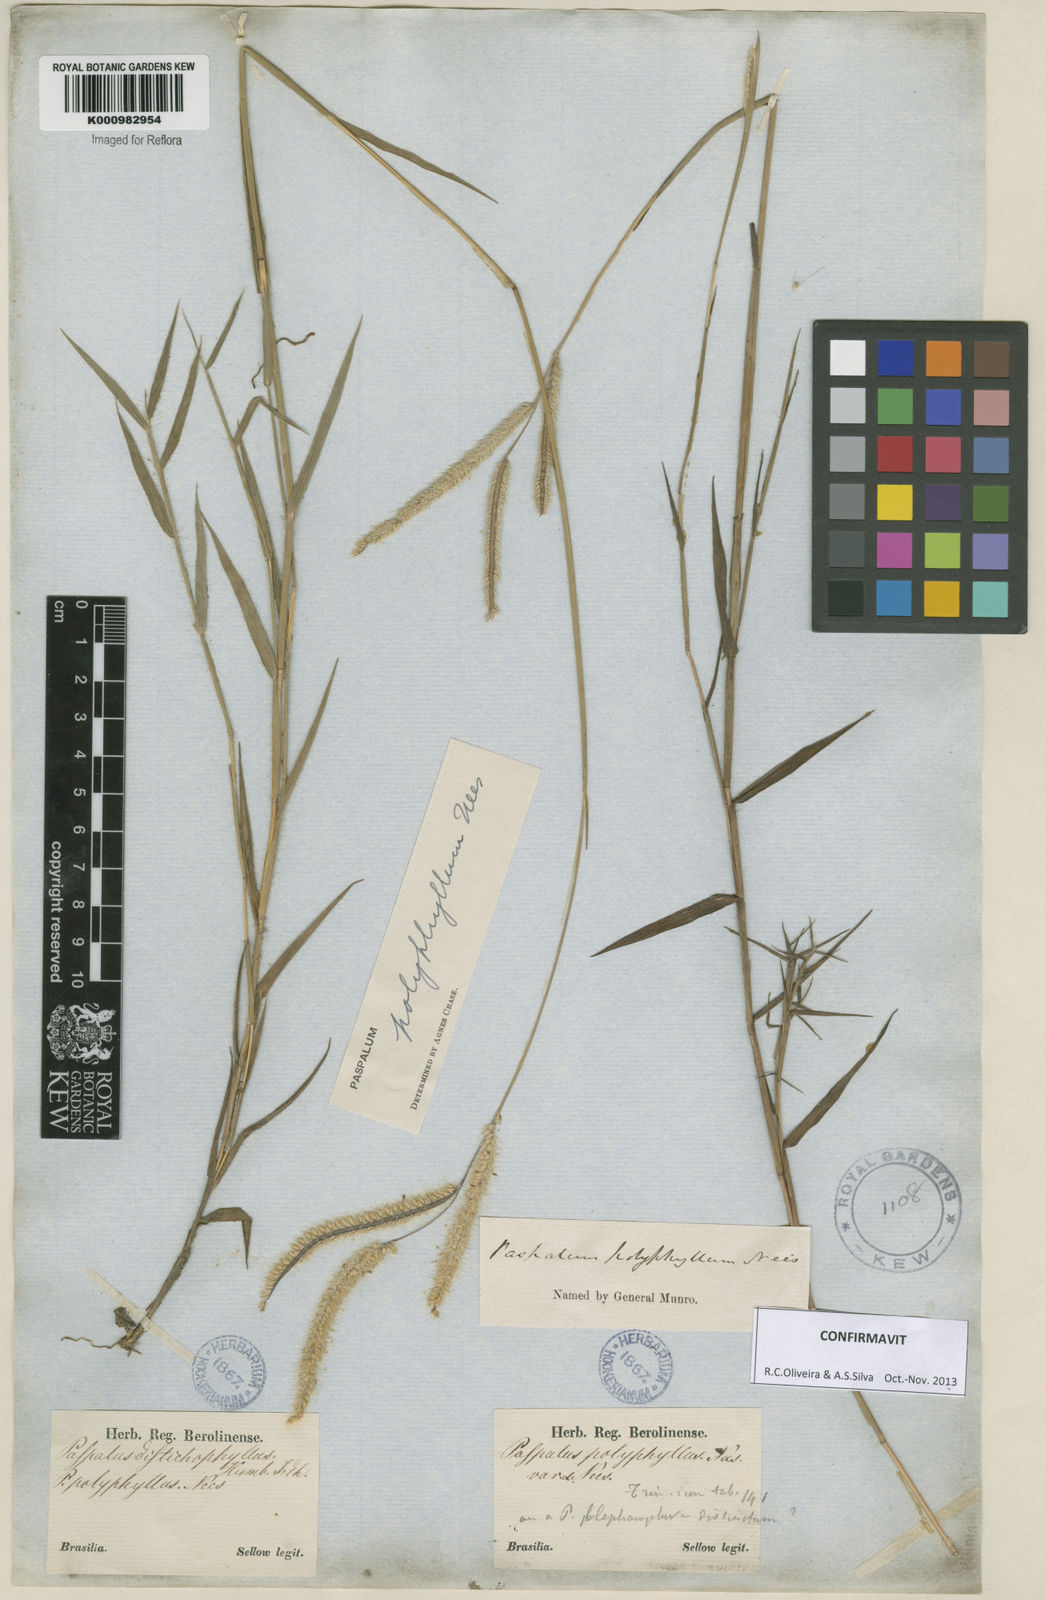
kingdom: Plantae
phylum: Tracheophyta
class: Liliopsida
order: Poales
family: Poaceae
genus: Paspalum
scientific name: Paspalum
